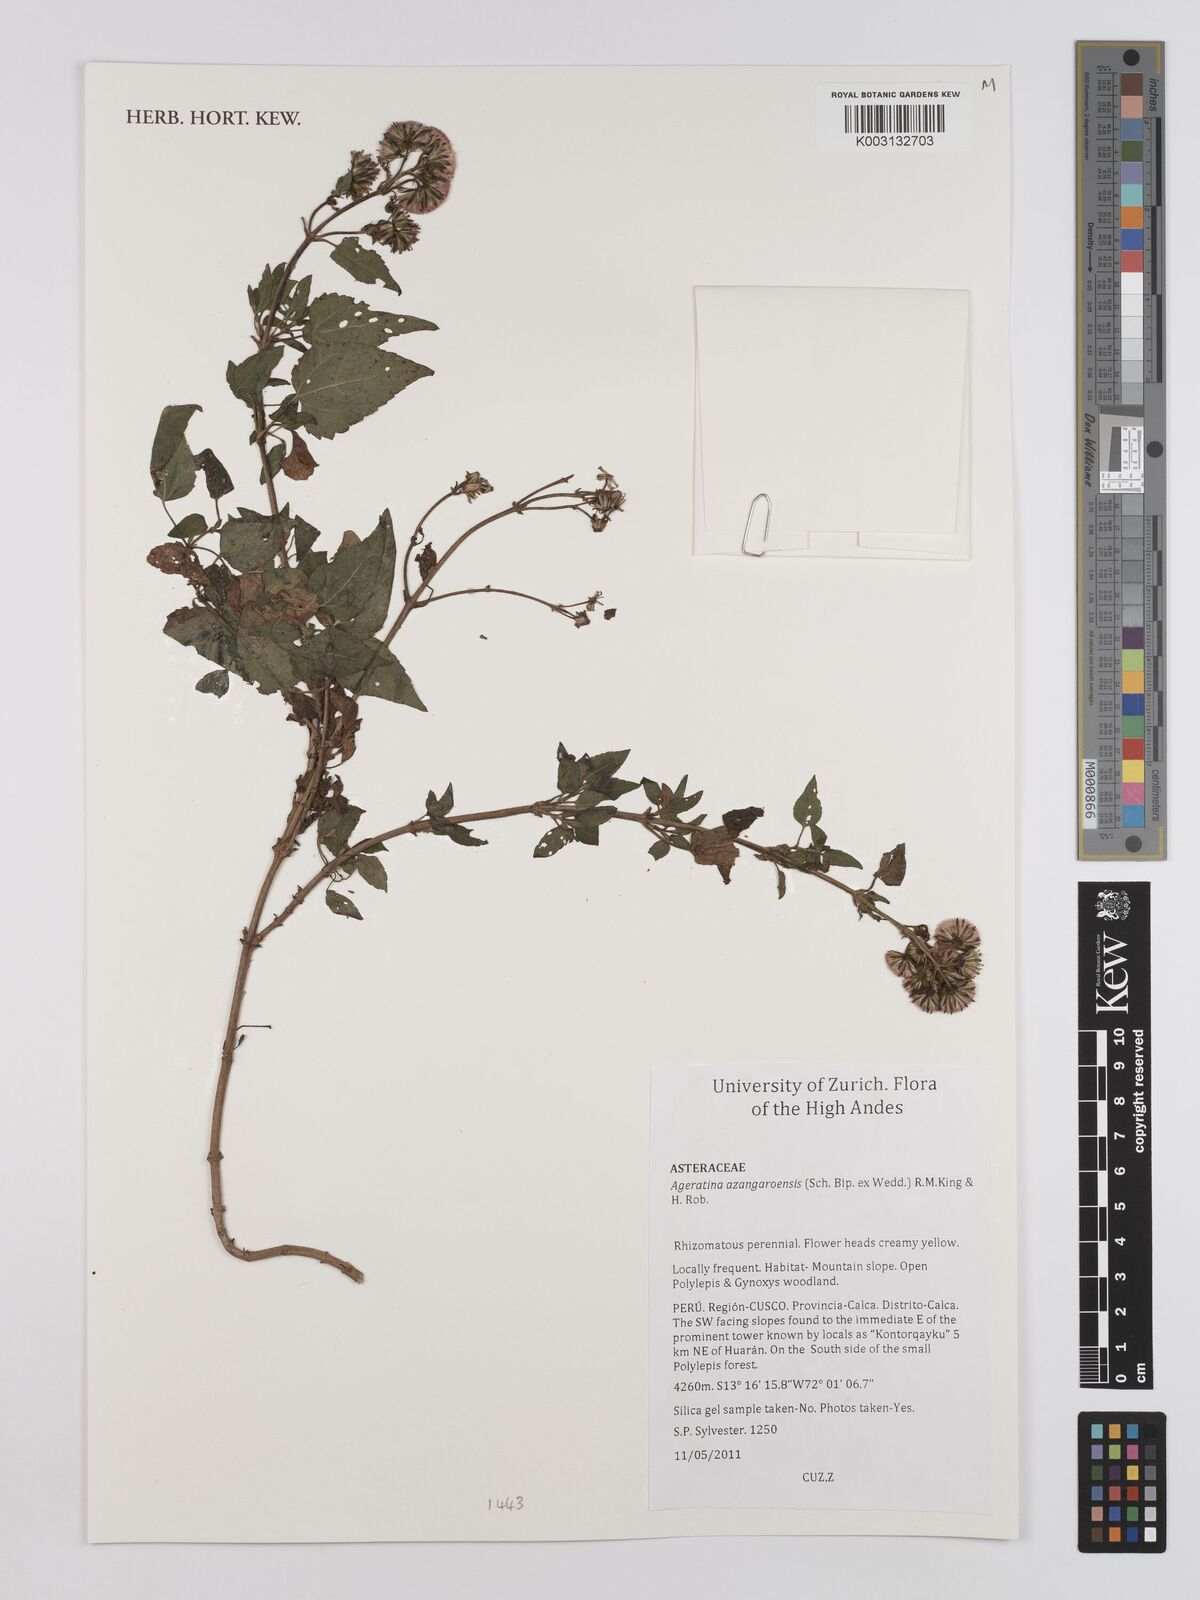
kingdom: Plantae
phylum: Tracheophyta
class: Magnoliopsida
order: Asterales
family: Asteraceae
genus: Ageratina
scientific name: Ageratina glechonophylla
